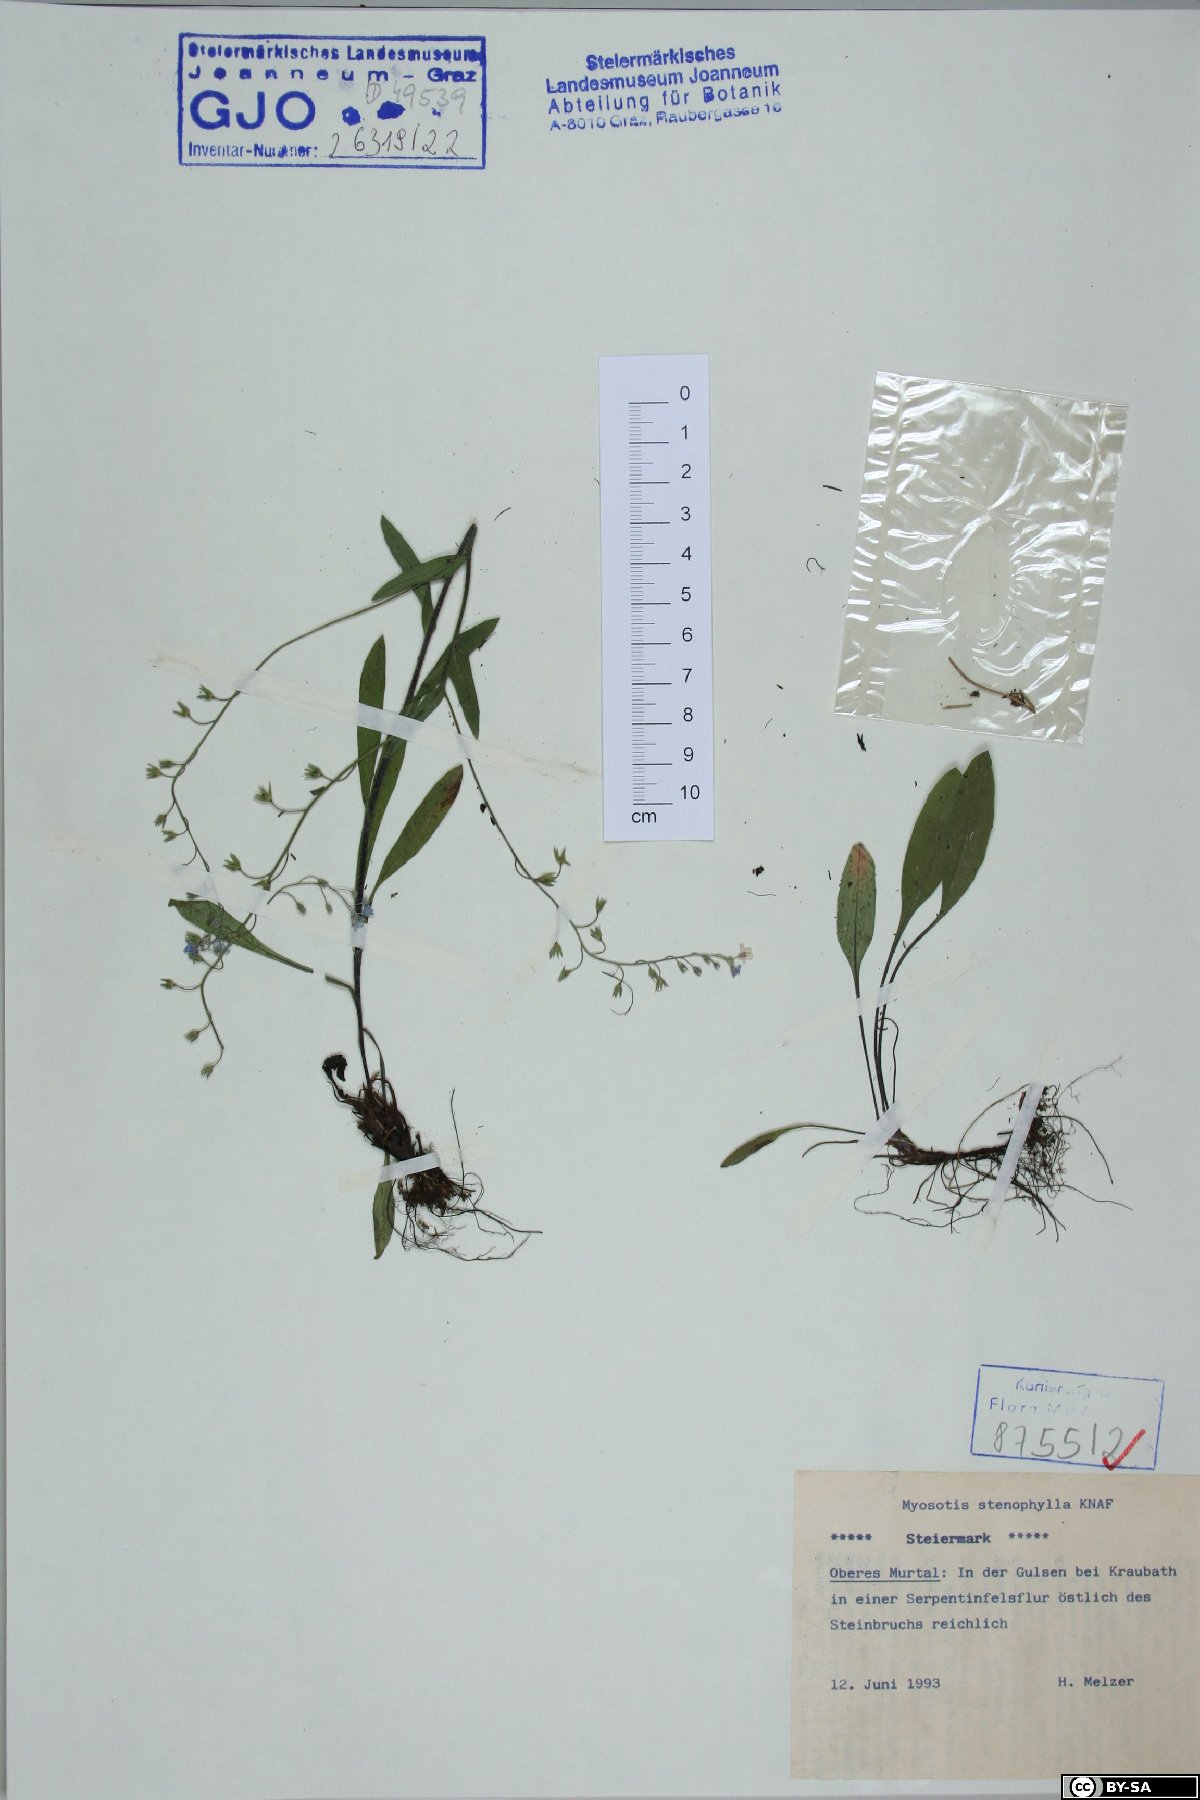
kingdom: Plantae
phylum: Tracheophyta
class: Magnoliopsida
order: Boraginales
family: Boraginaceae
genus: Myosotis
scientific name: Myosotis stenophylla
